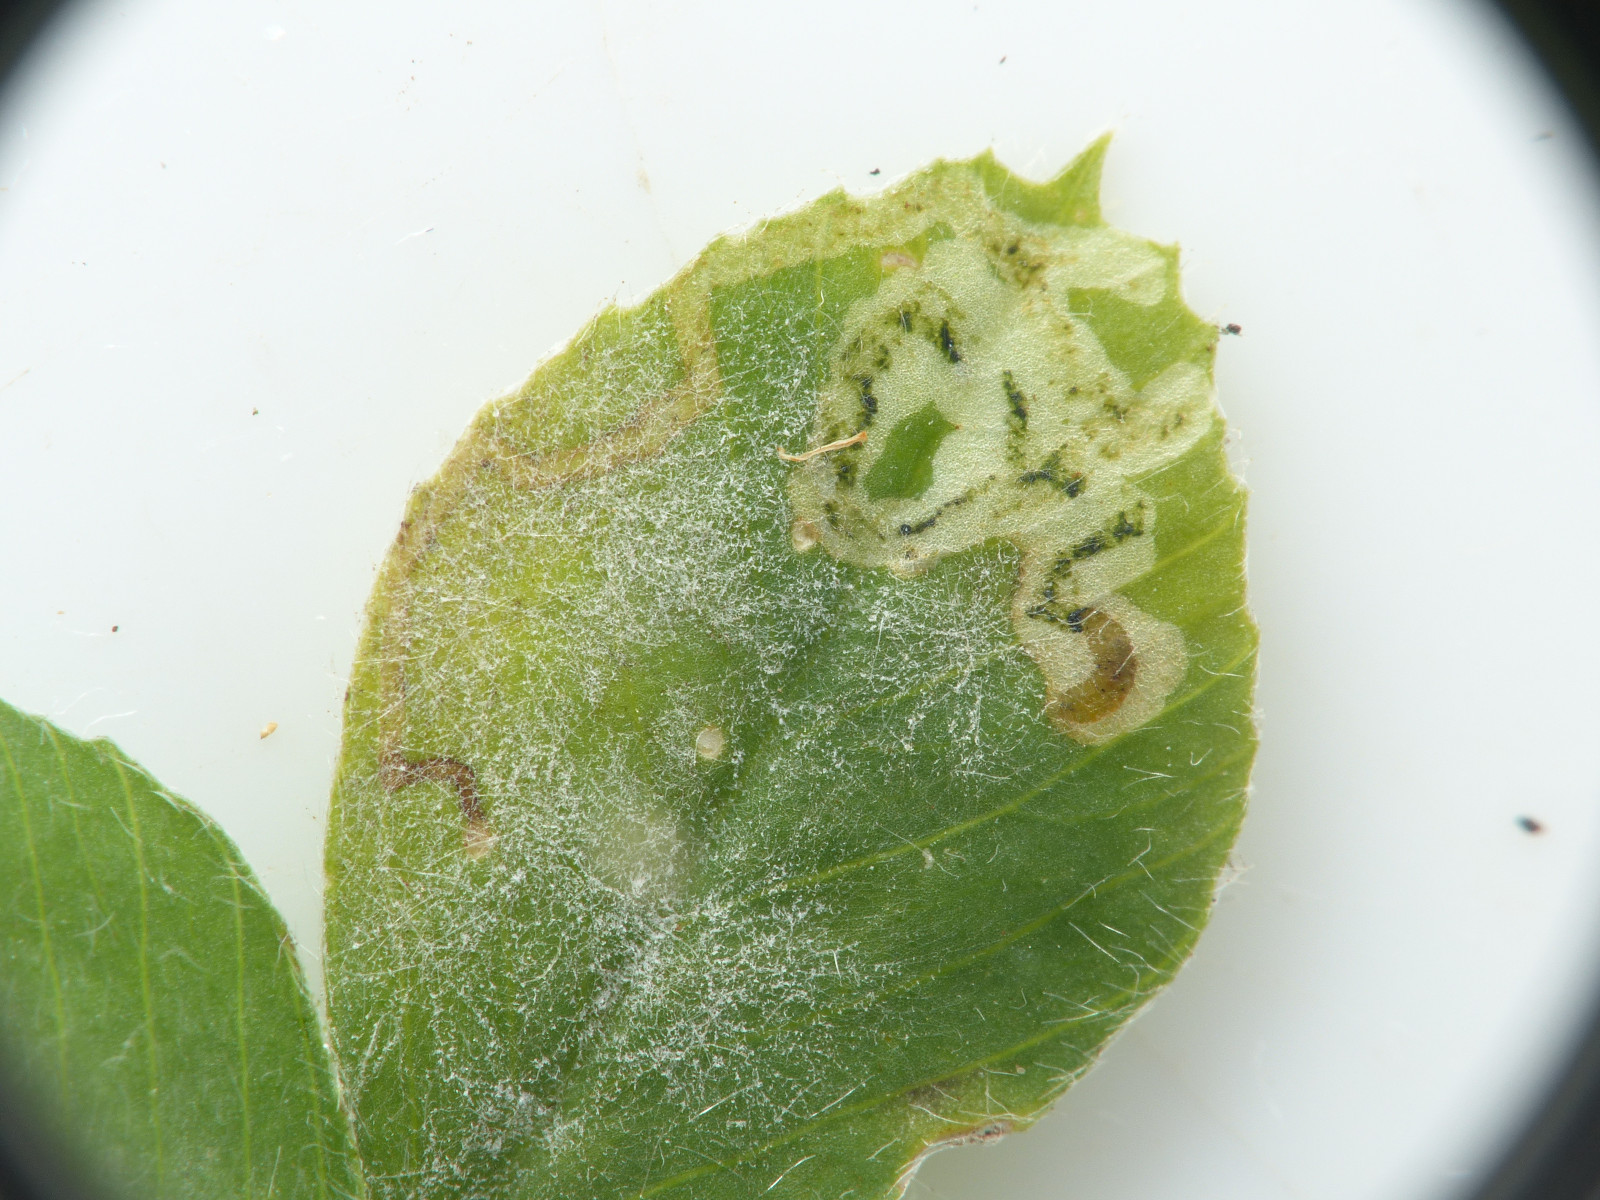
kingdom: Fungi
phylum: Ascomycota
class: Leotiomycetes
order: Helotiales
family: Erysiphaceae
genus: Erysiphe
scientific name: Erysiphe pisi
